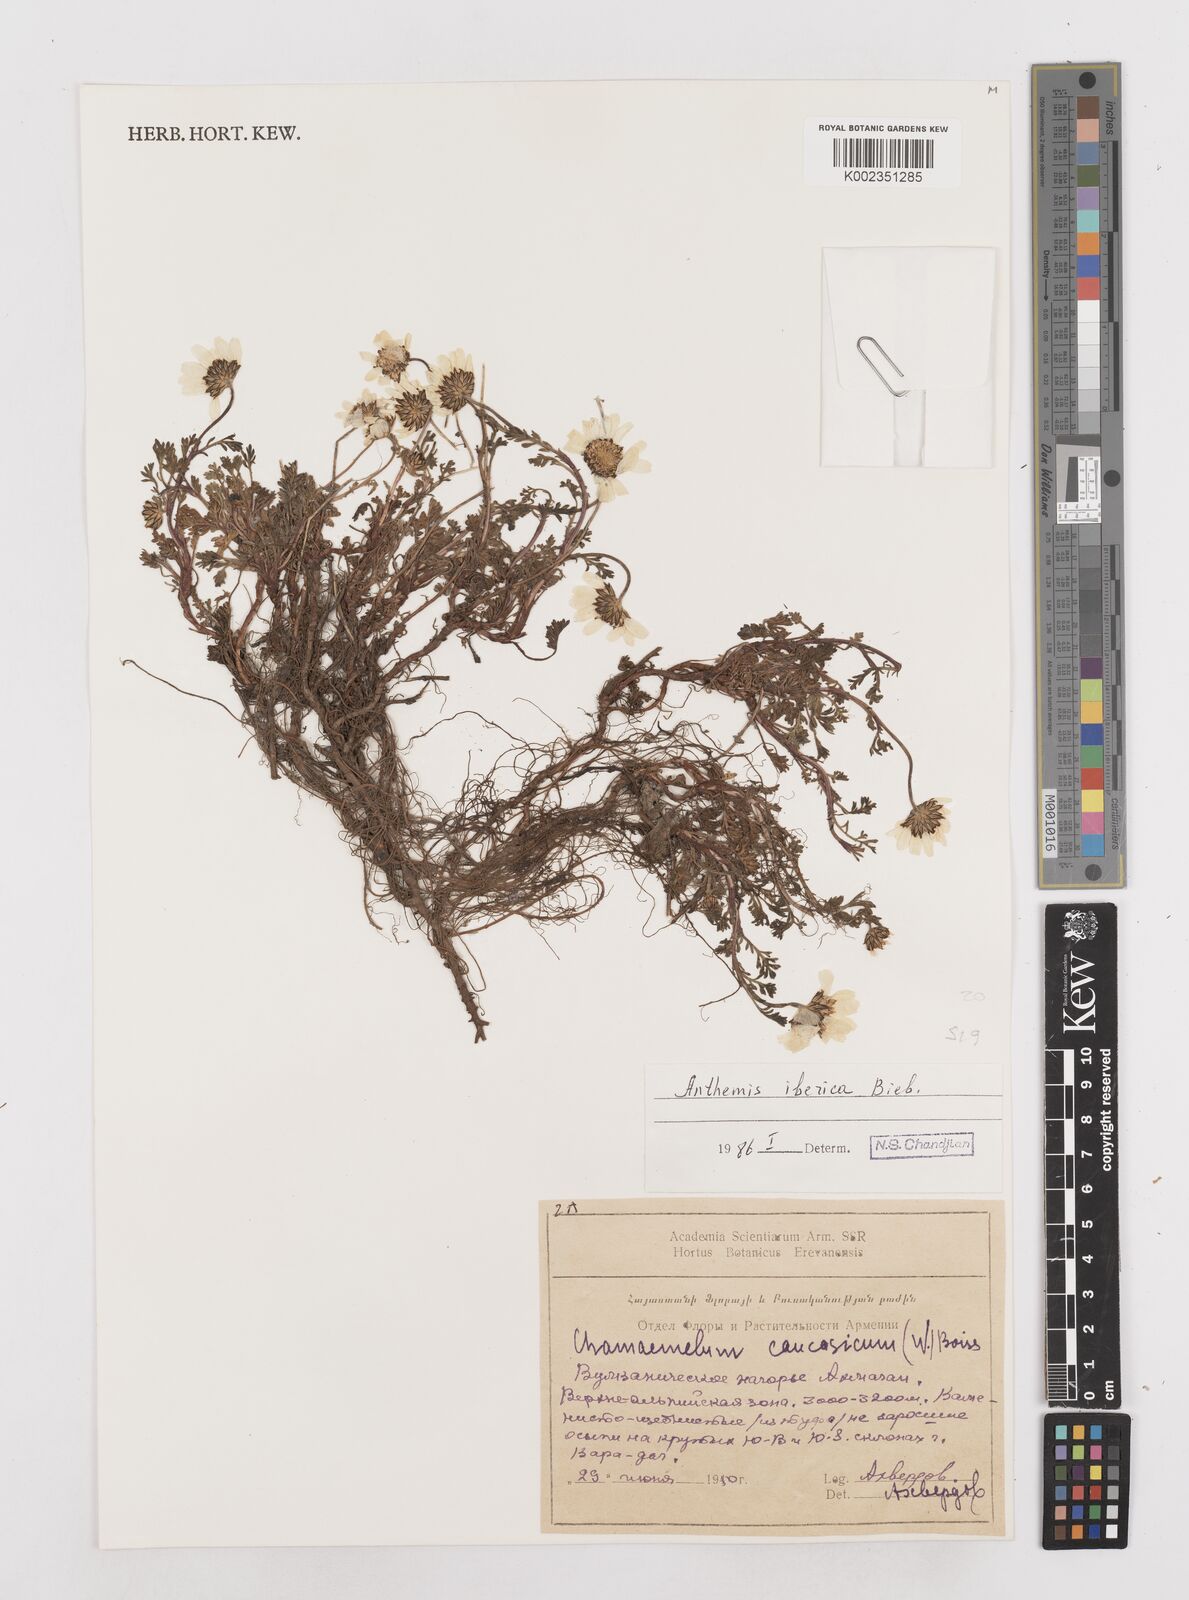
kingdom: Plantae
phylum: Tracheophyta
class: Magnoliopsida
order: Asterales
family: Asteraceae
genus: Anthemis
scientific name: Anthemis cretica
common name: Mountain dog-daisy
